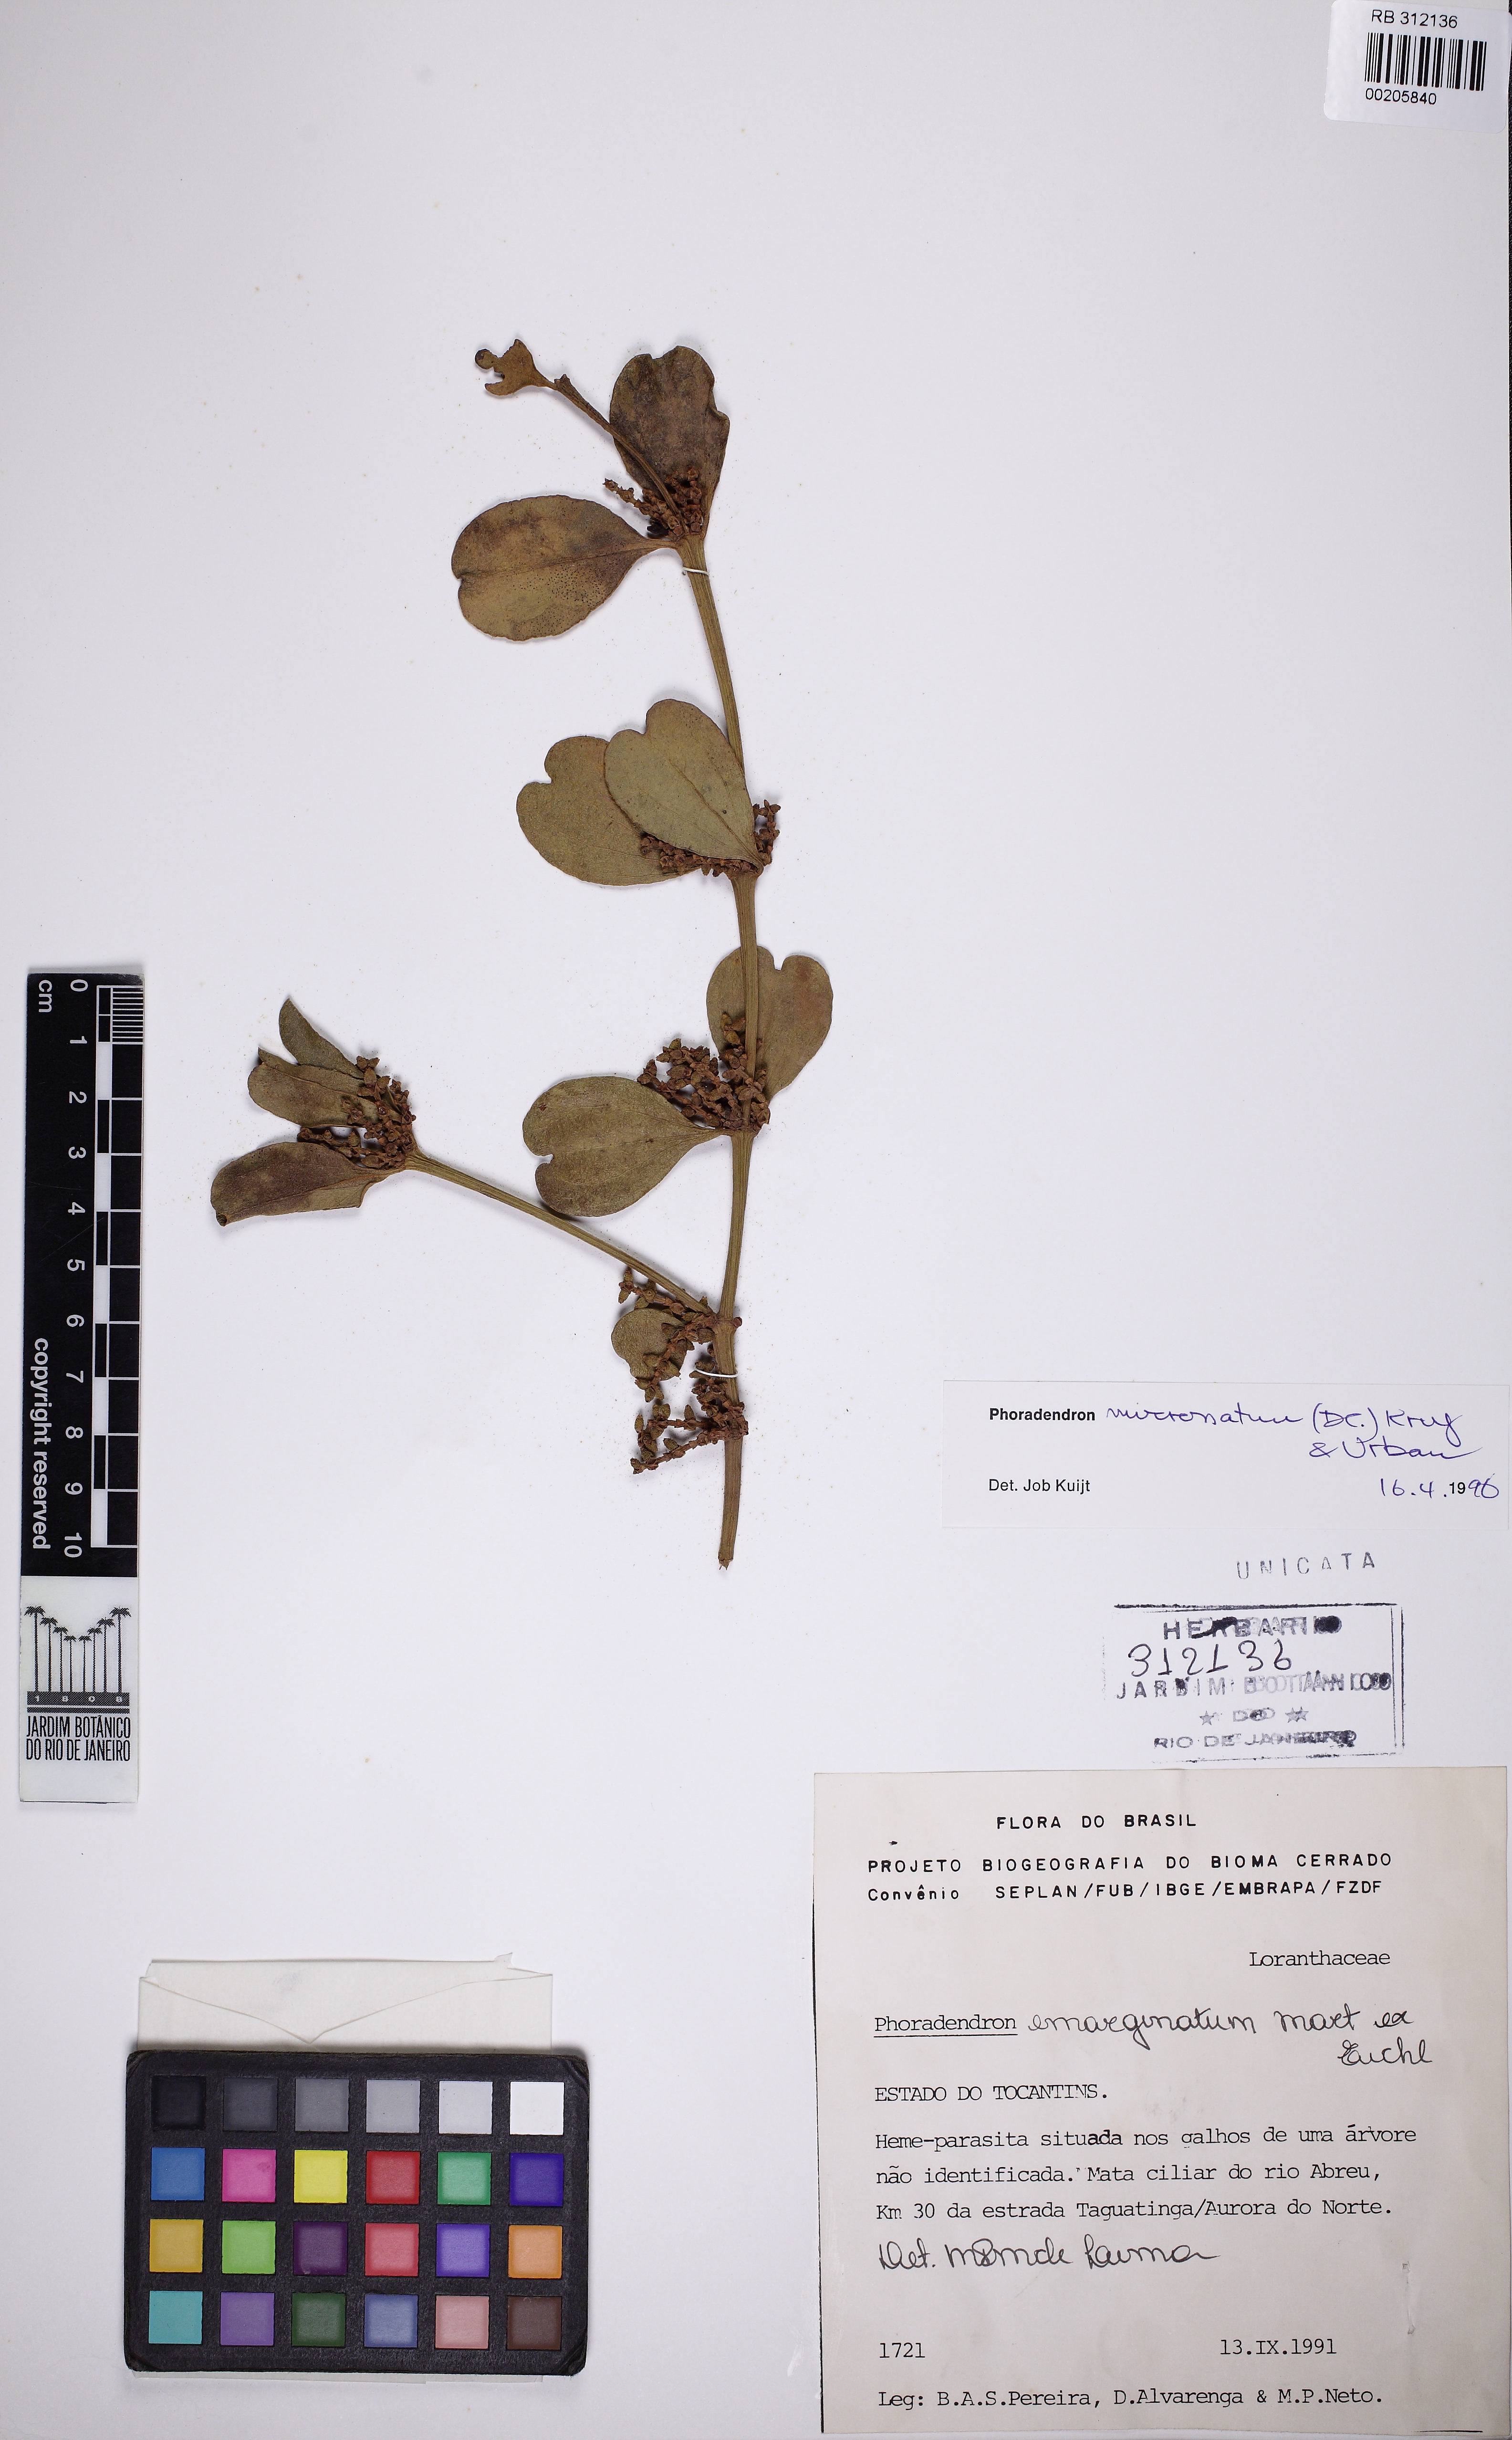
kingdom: Plantae
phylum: Tracheophyta
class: Magnoliopsida
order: Santalales
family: Viscaceae
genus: Phoradendron
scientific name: Phoradendron mucronatum
